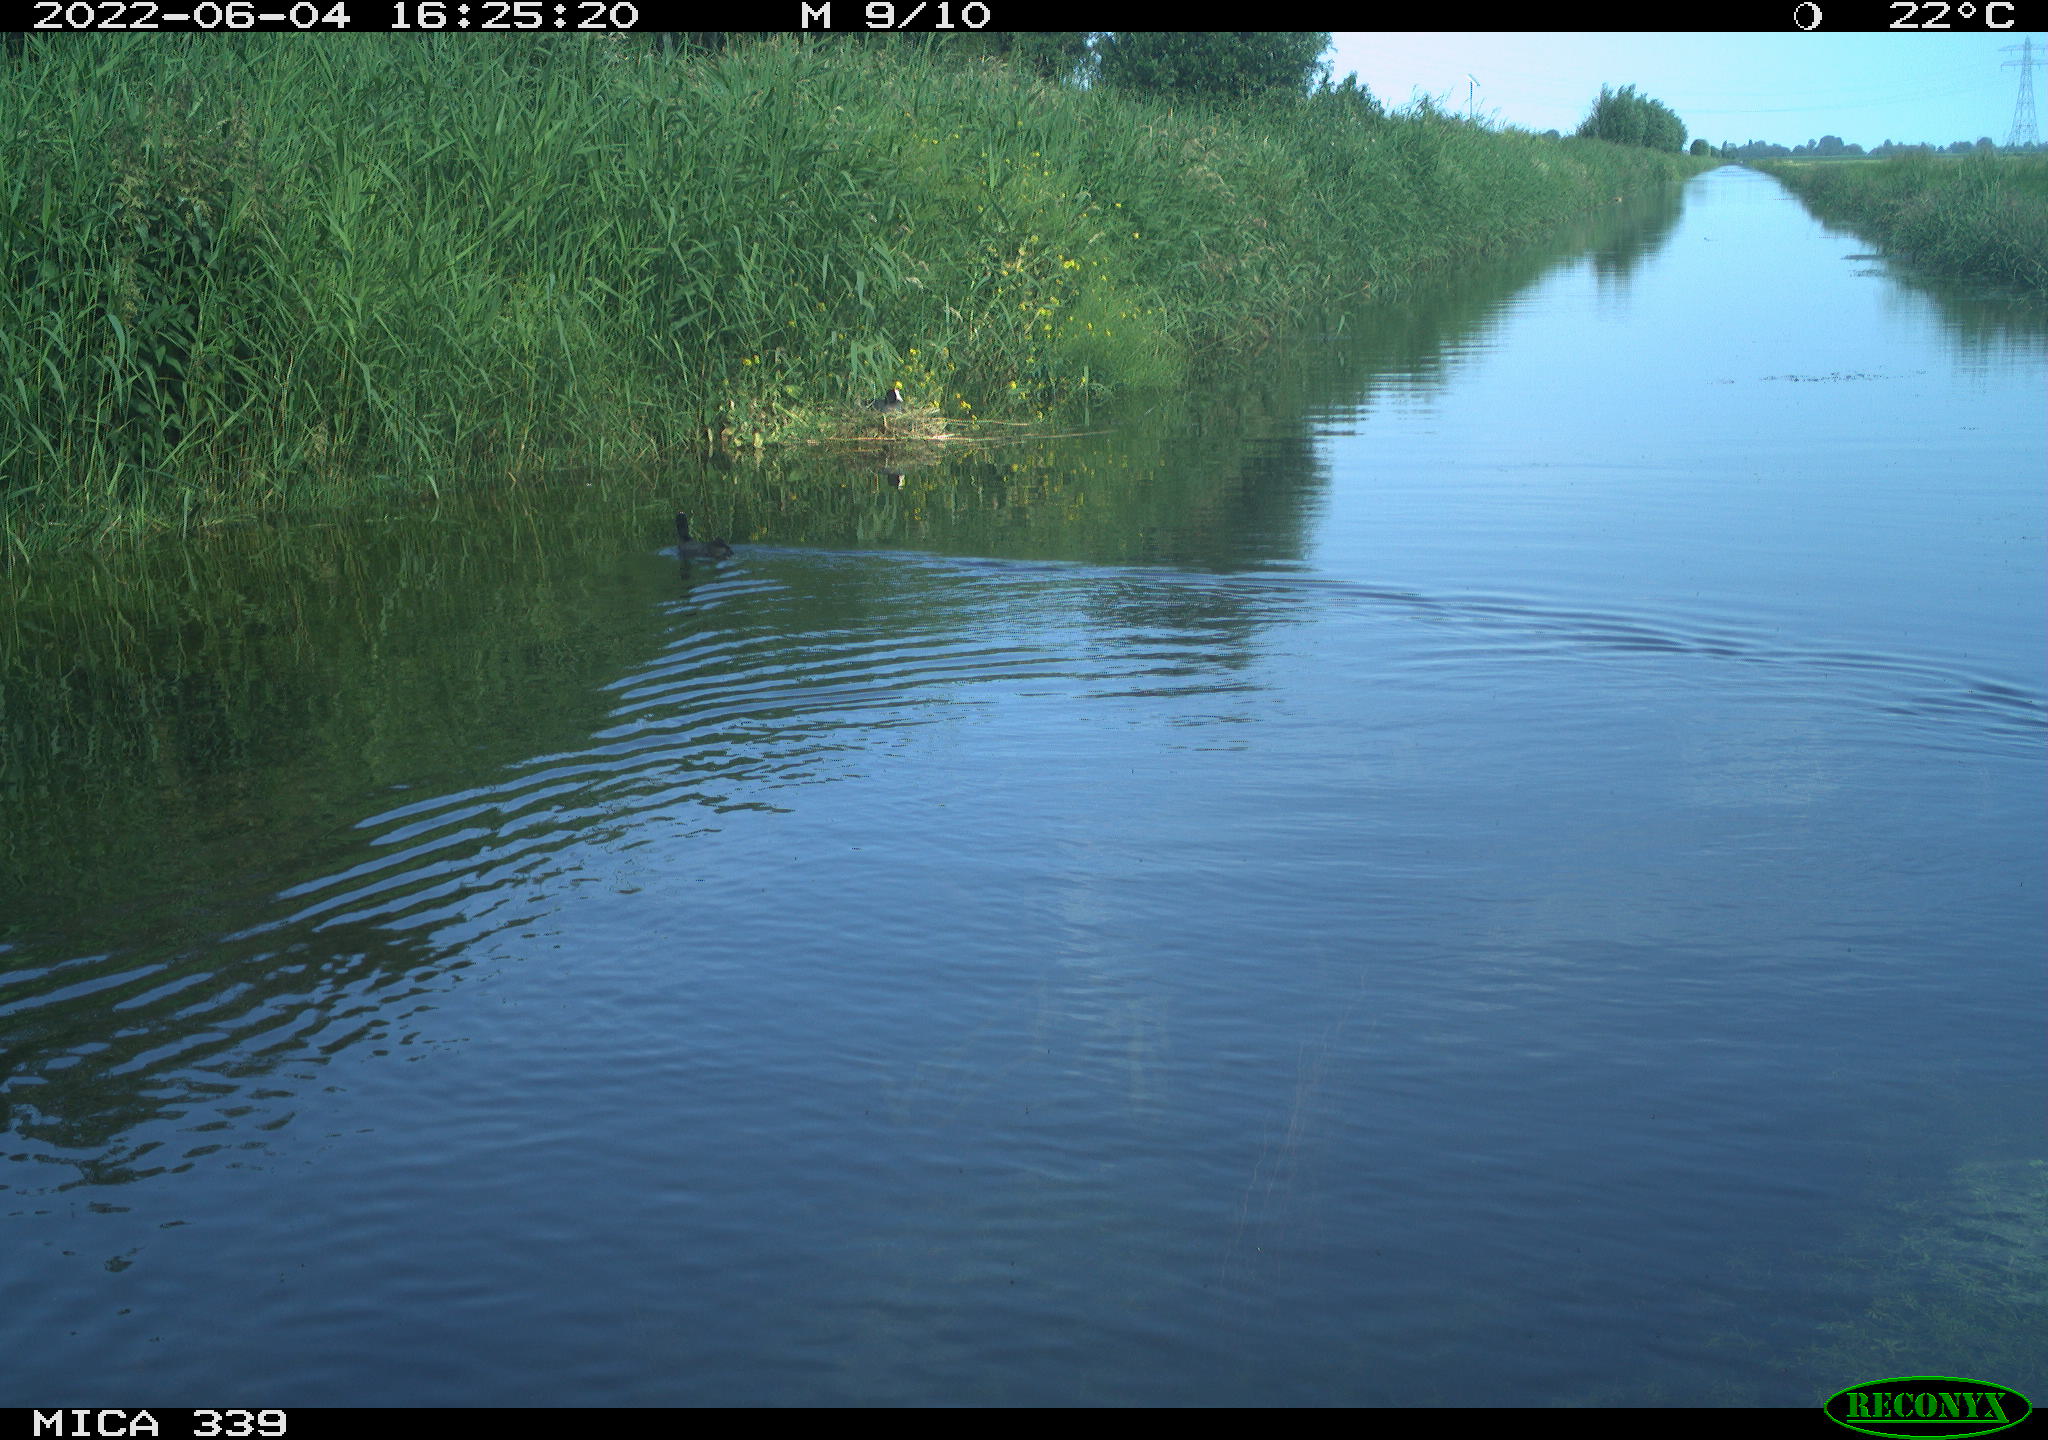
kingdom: Animalia
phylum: Chordata
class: Aves
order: Gruiformes
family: Rallidae
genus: Fulica
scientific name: Fulica atra
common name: Eurasian coot
